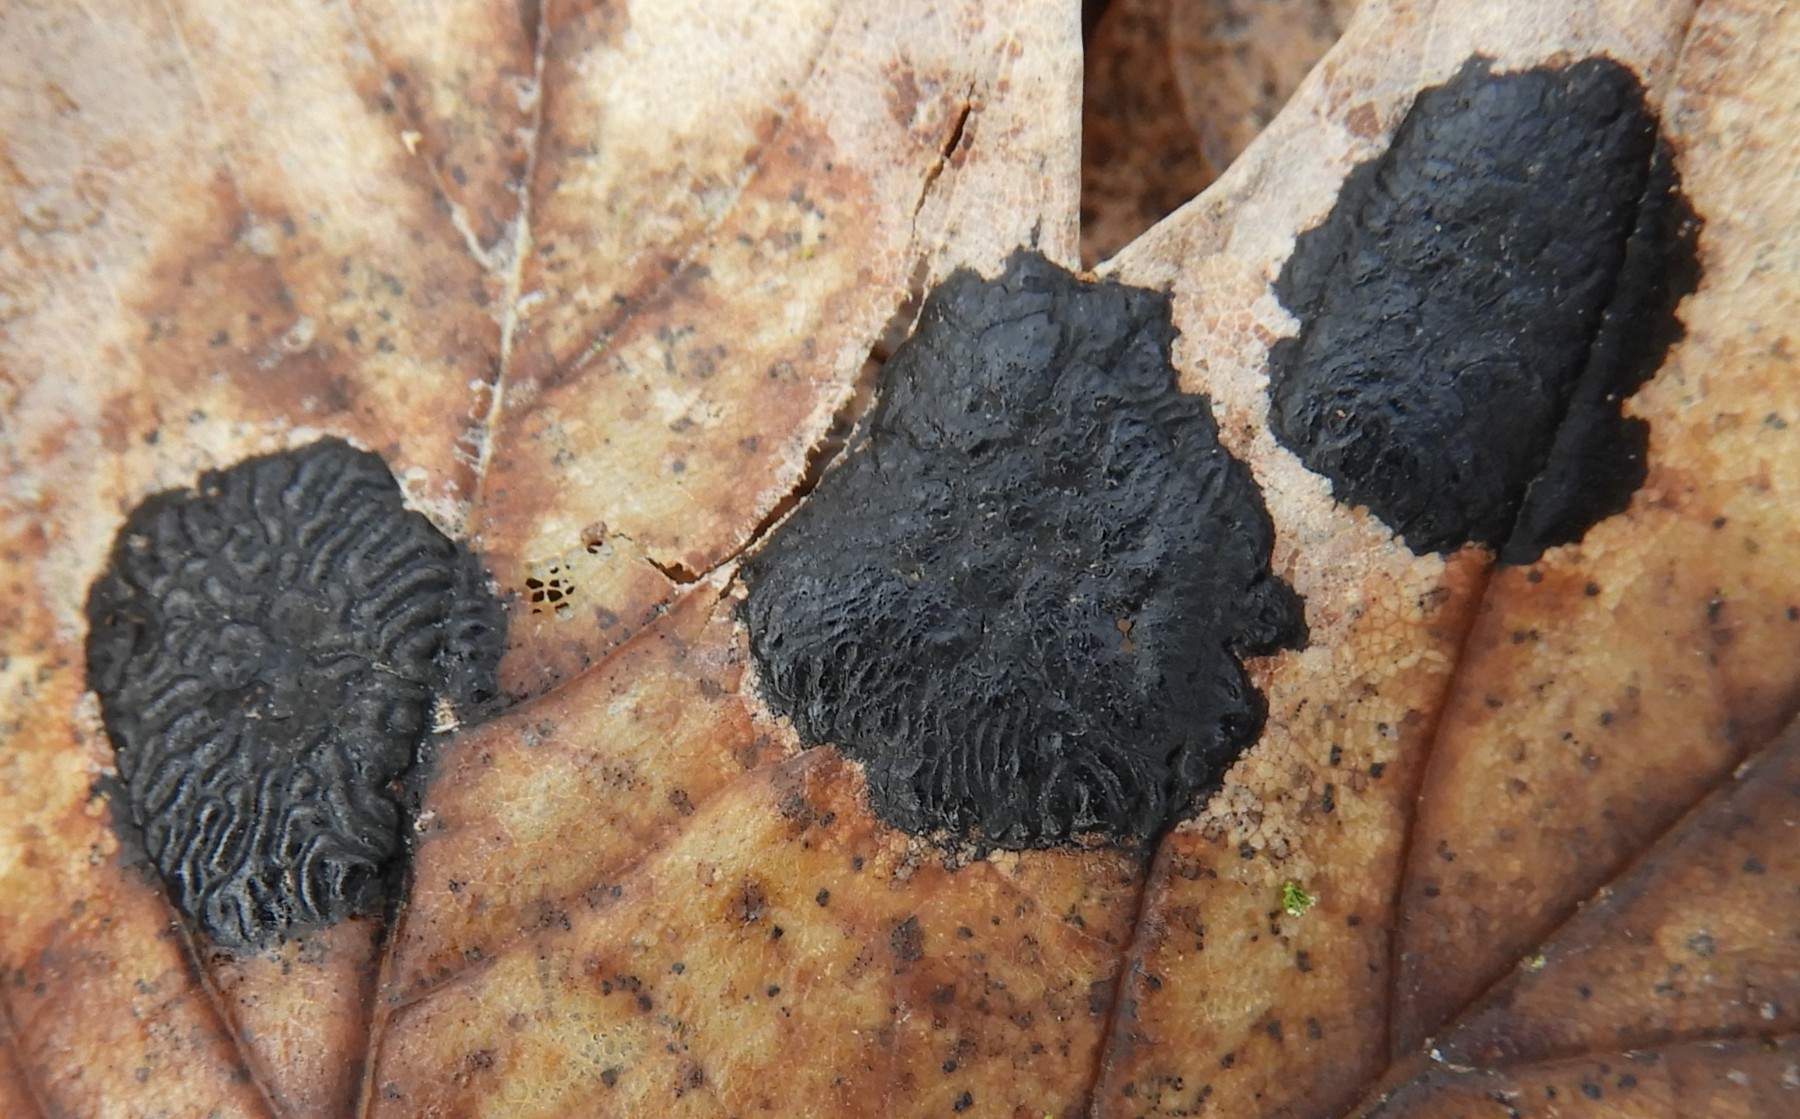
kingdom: Fungi
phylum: Ascomycota
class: Leotiomycetes
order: Rhytismatales
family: Rhytismataceae
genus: Rhytisma
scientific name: Rhytisma acerinum
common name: ahorn-rynkeplet
